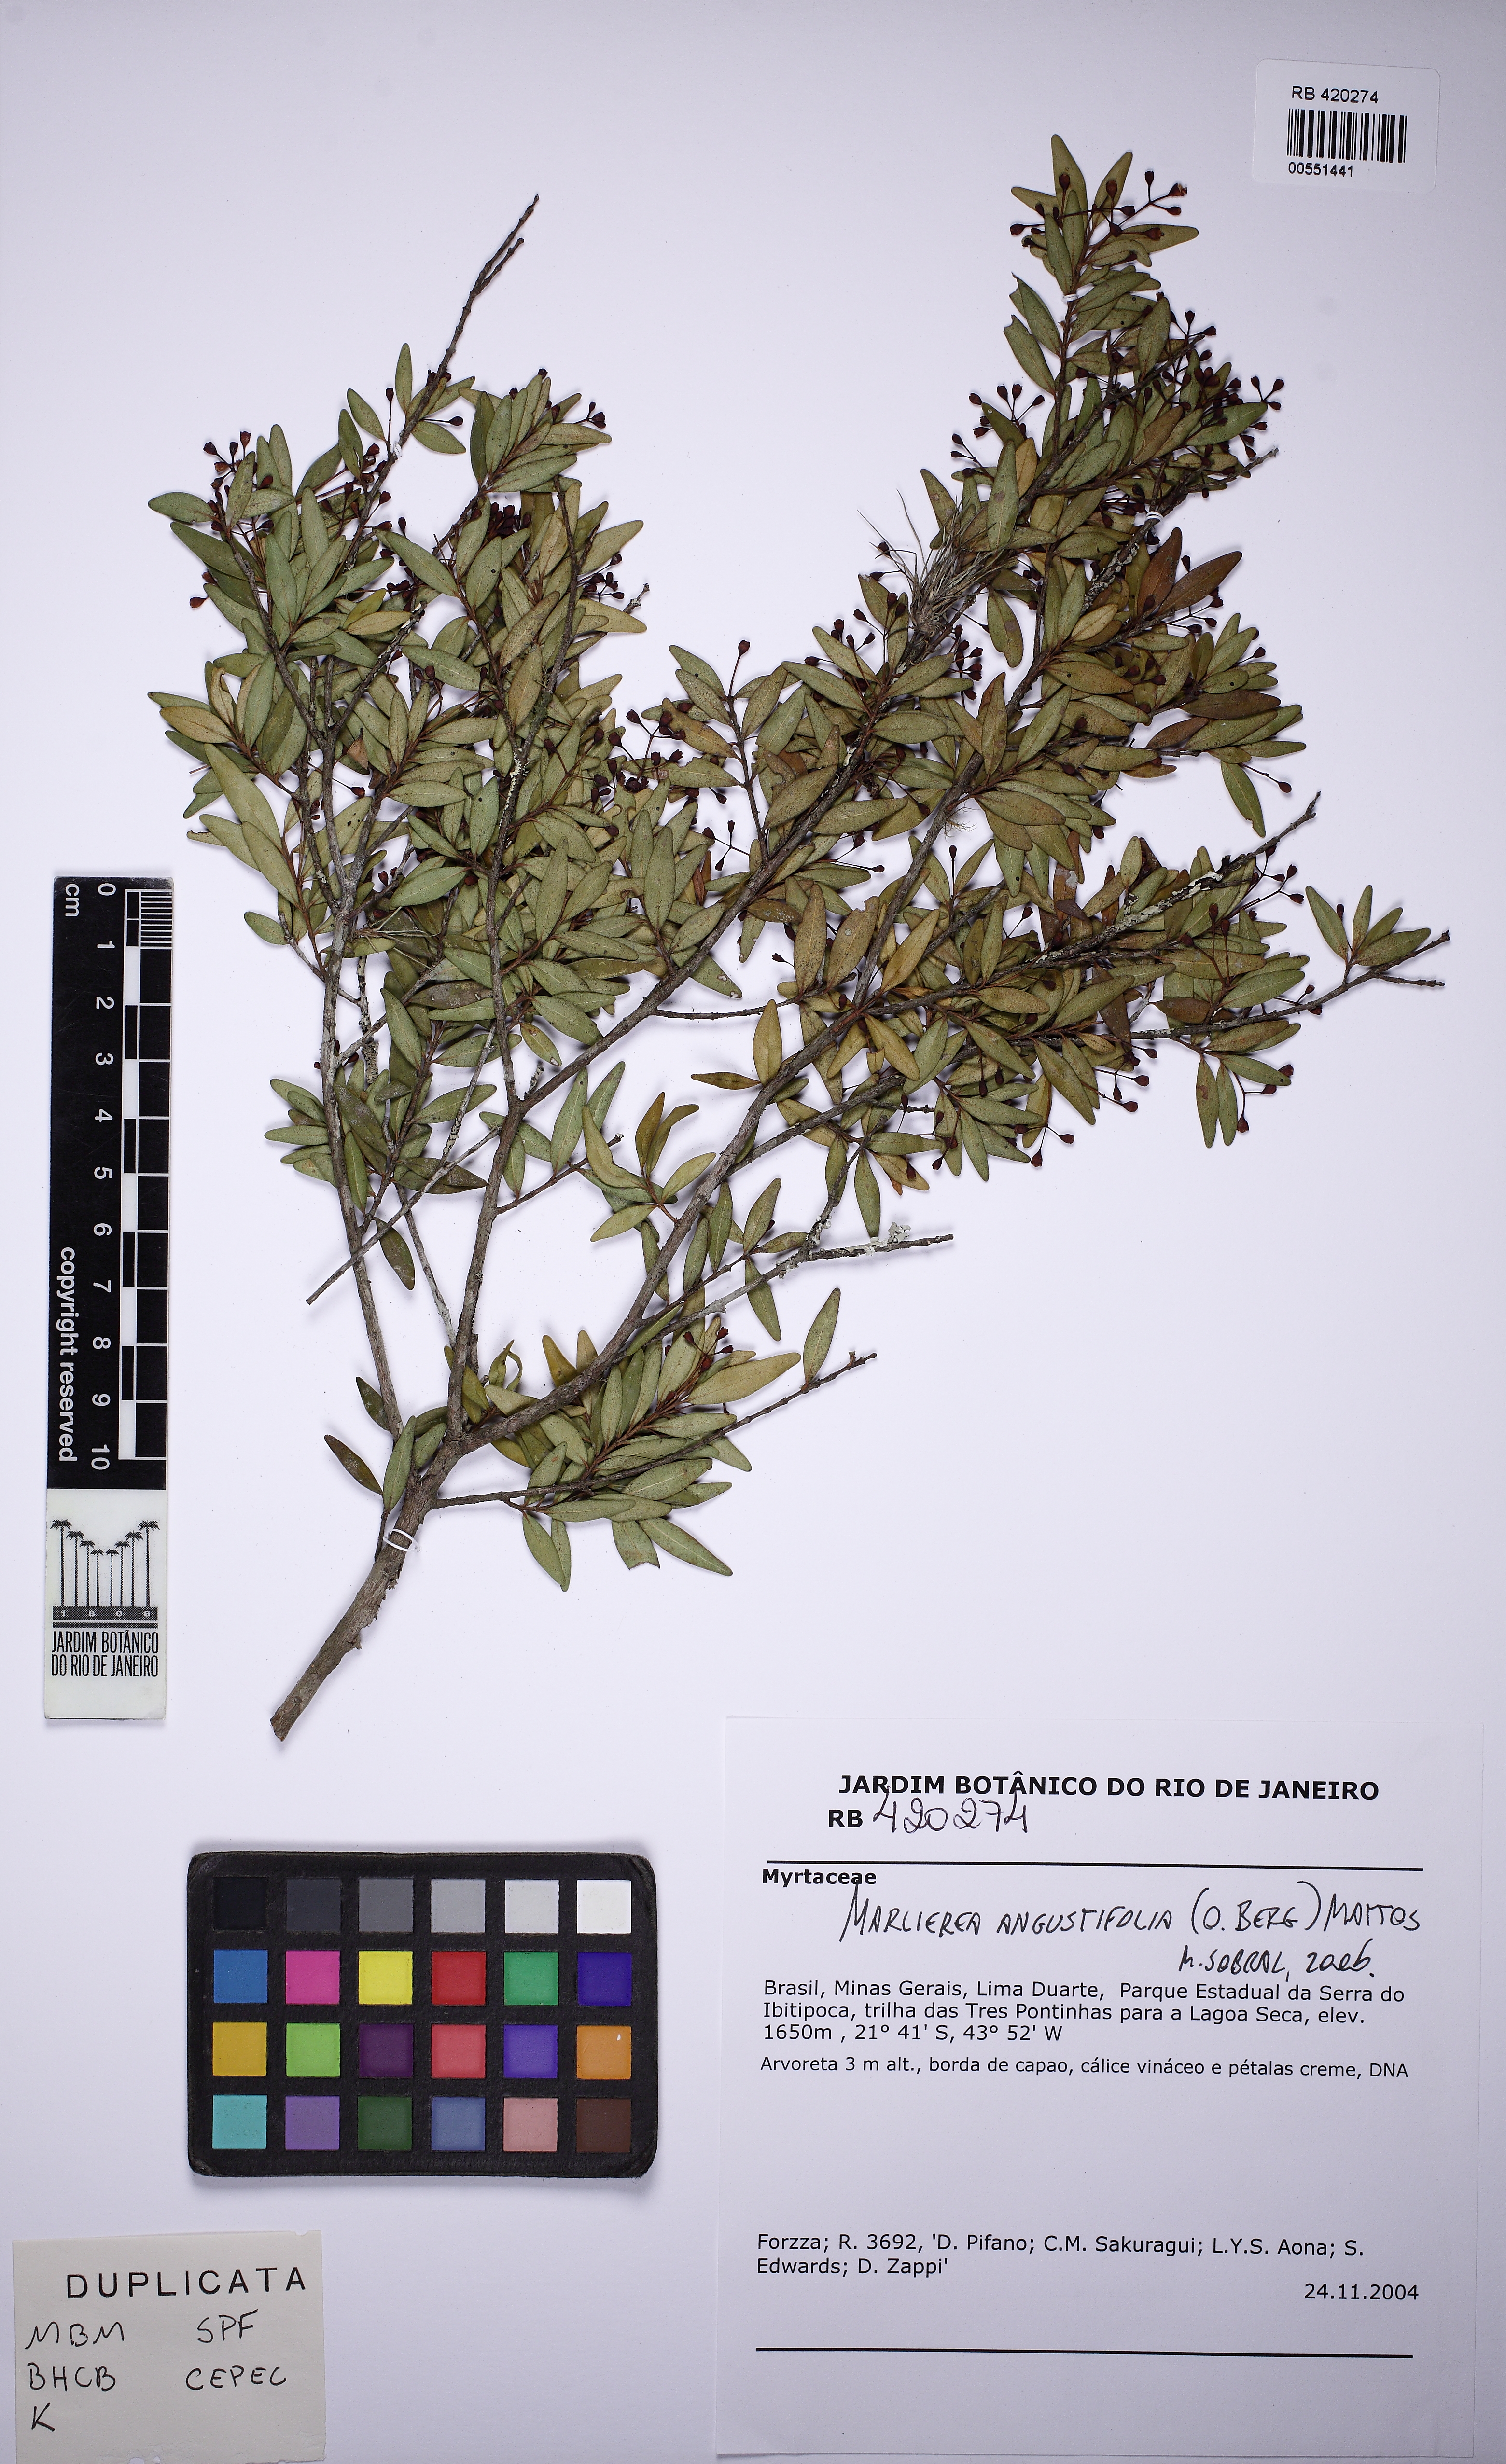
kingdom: Plantae
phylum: Tracheophyta
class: Magnoliopsida
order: Myrtales
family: Myrtaceae
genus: Myrcia
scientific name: Myrcia lenheirensis
